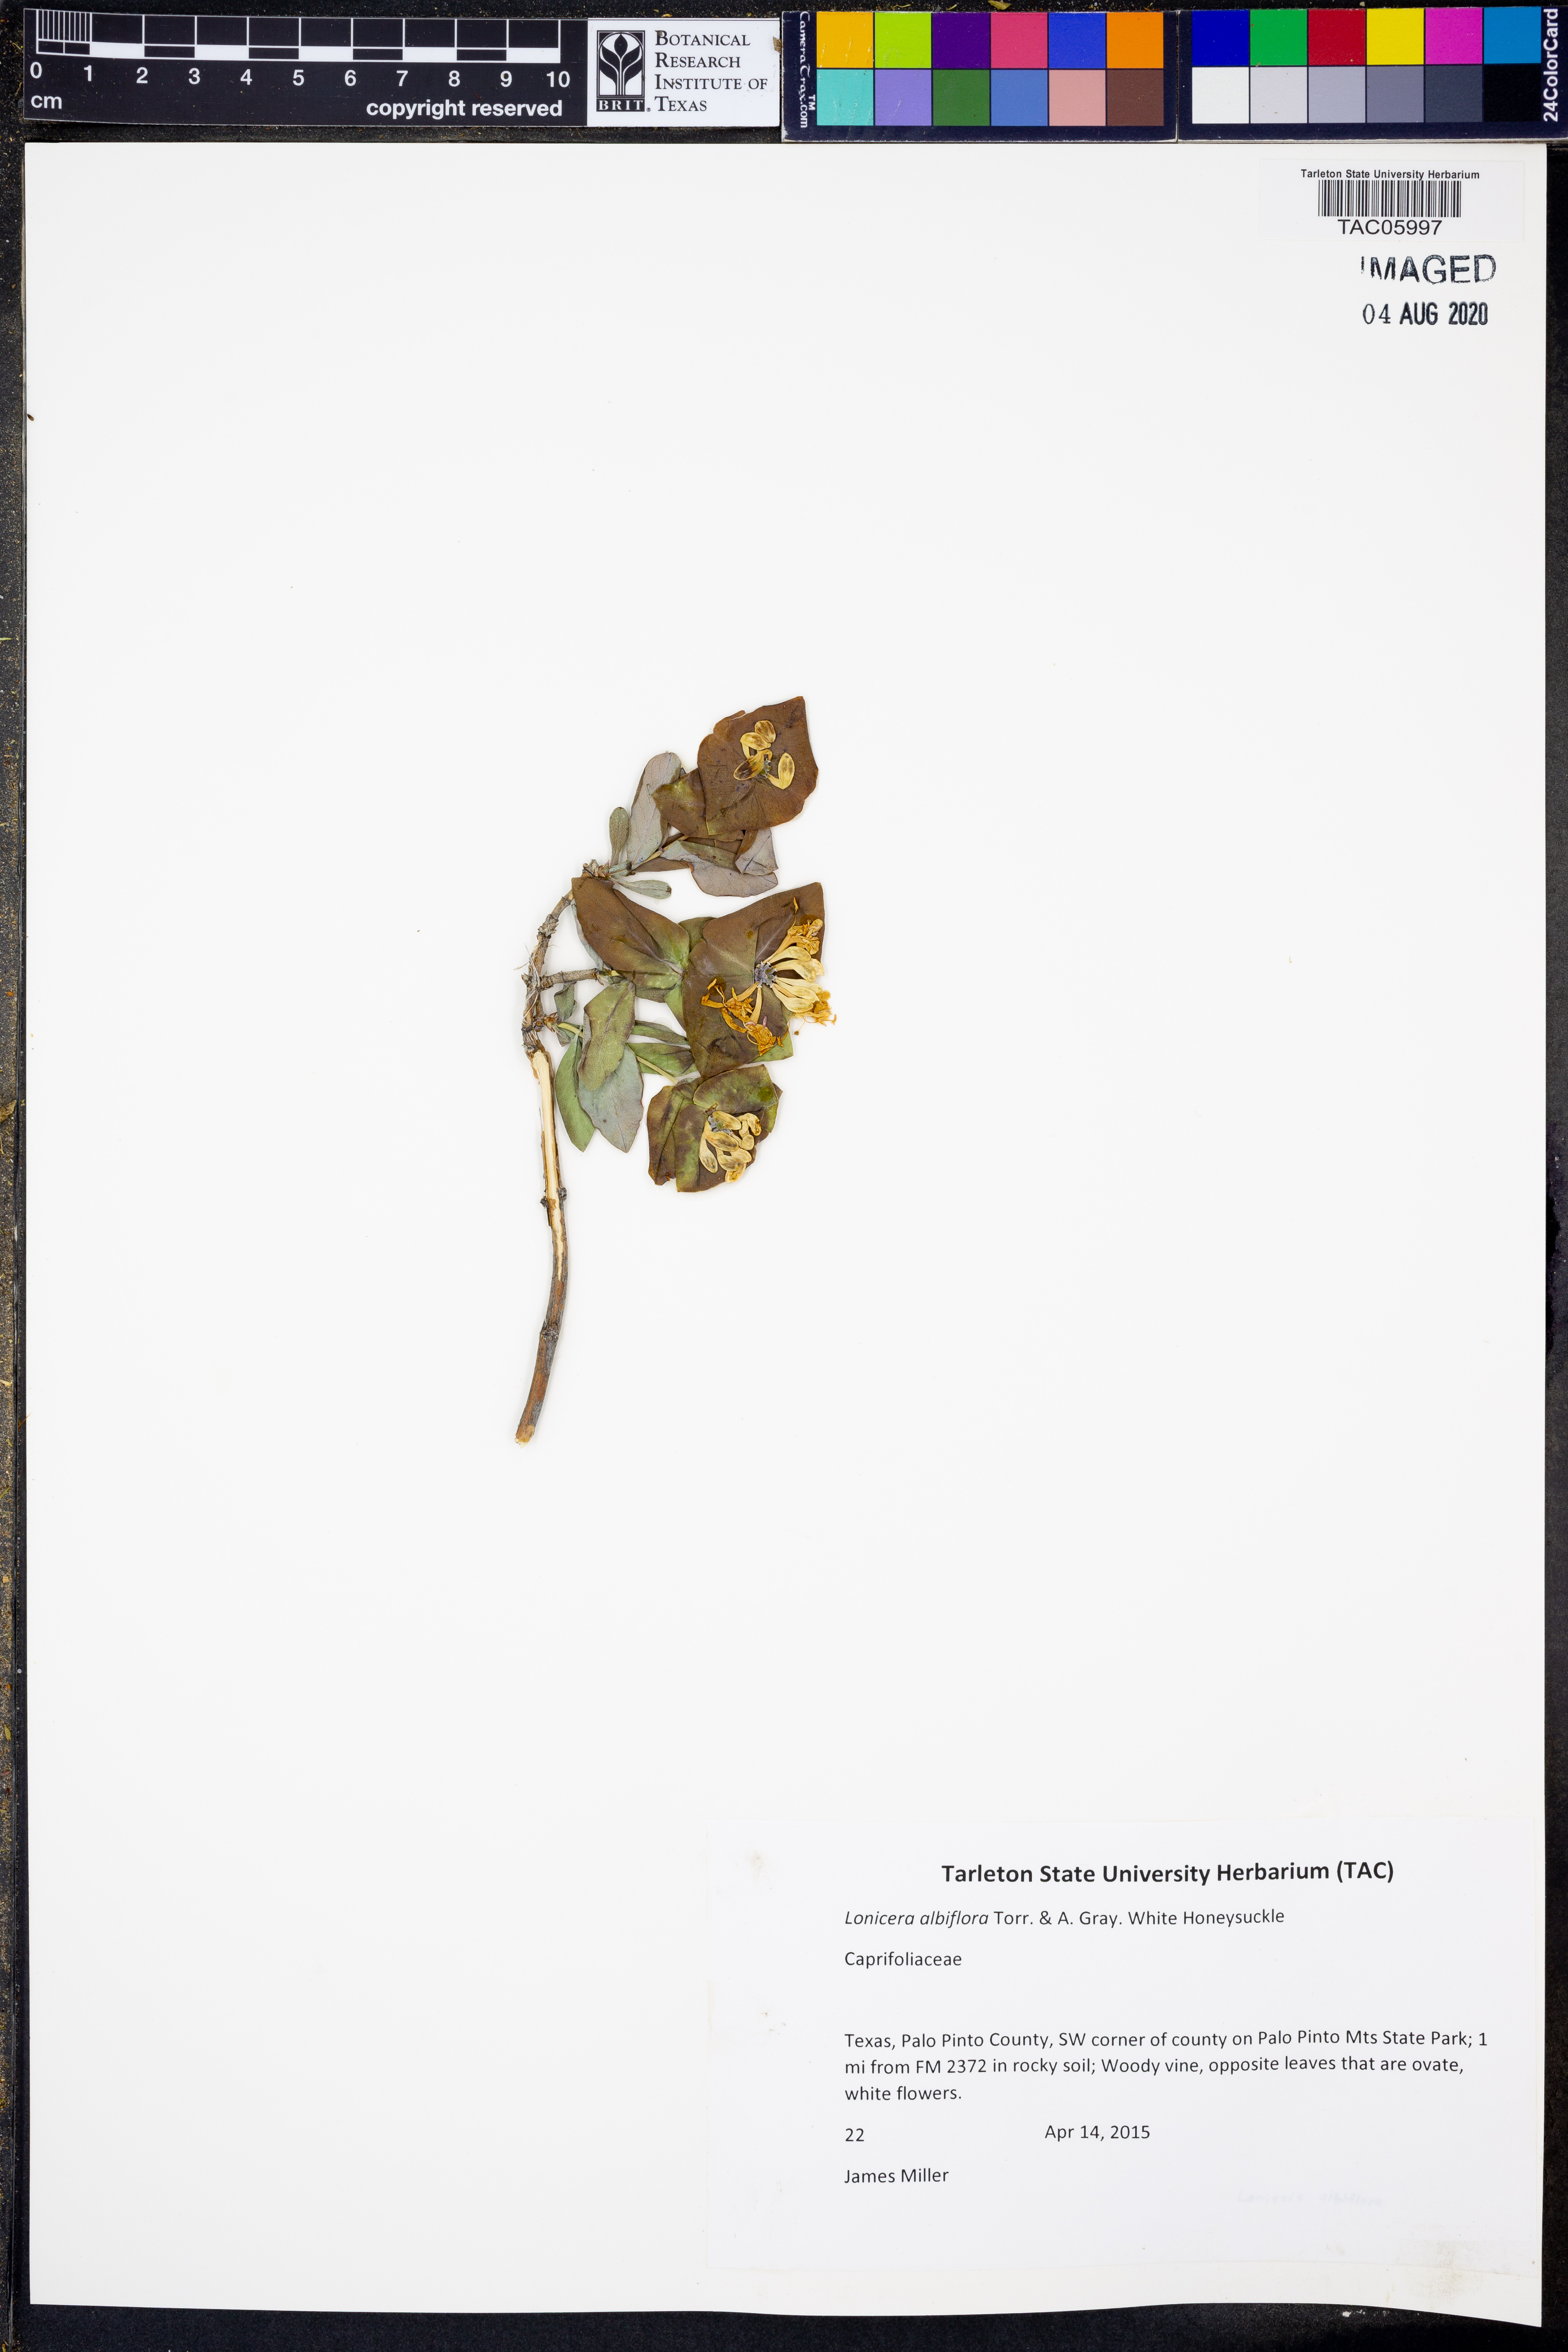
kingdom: Plantae
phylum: Tracheophyta
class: Magnoliopsida
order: Dipsacales
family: Caprifoliaceae
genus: Lonicera
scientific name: Lonicera albiflora
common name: White honeysuckle
